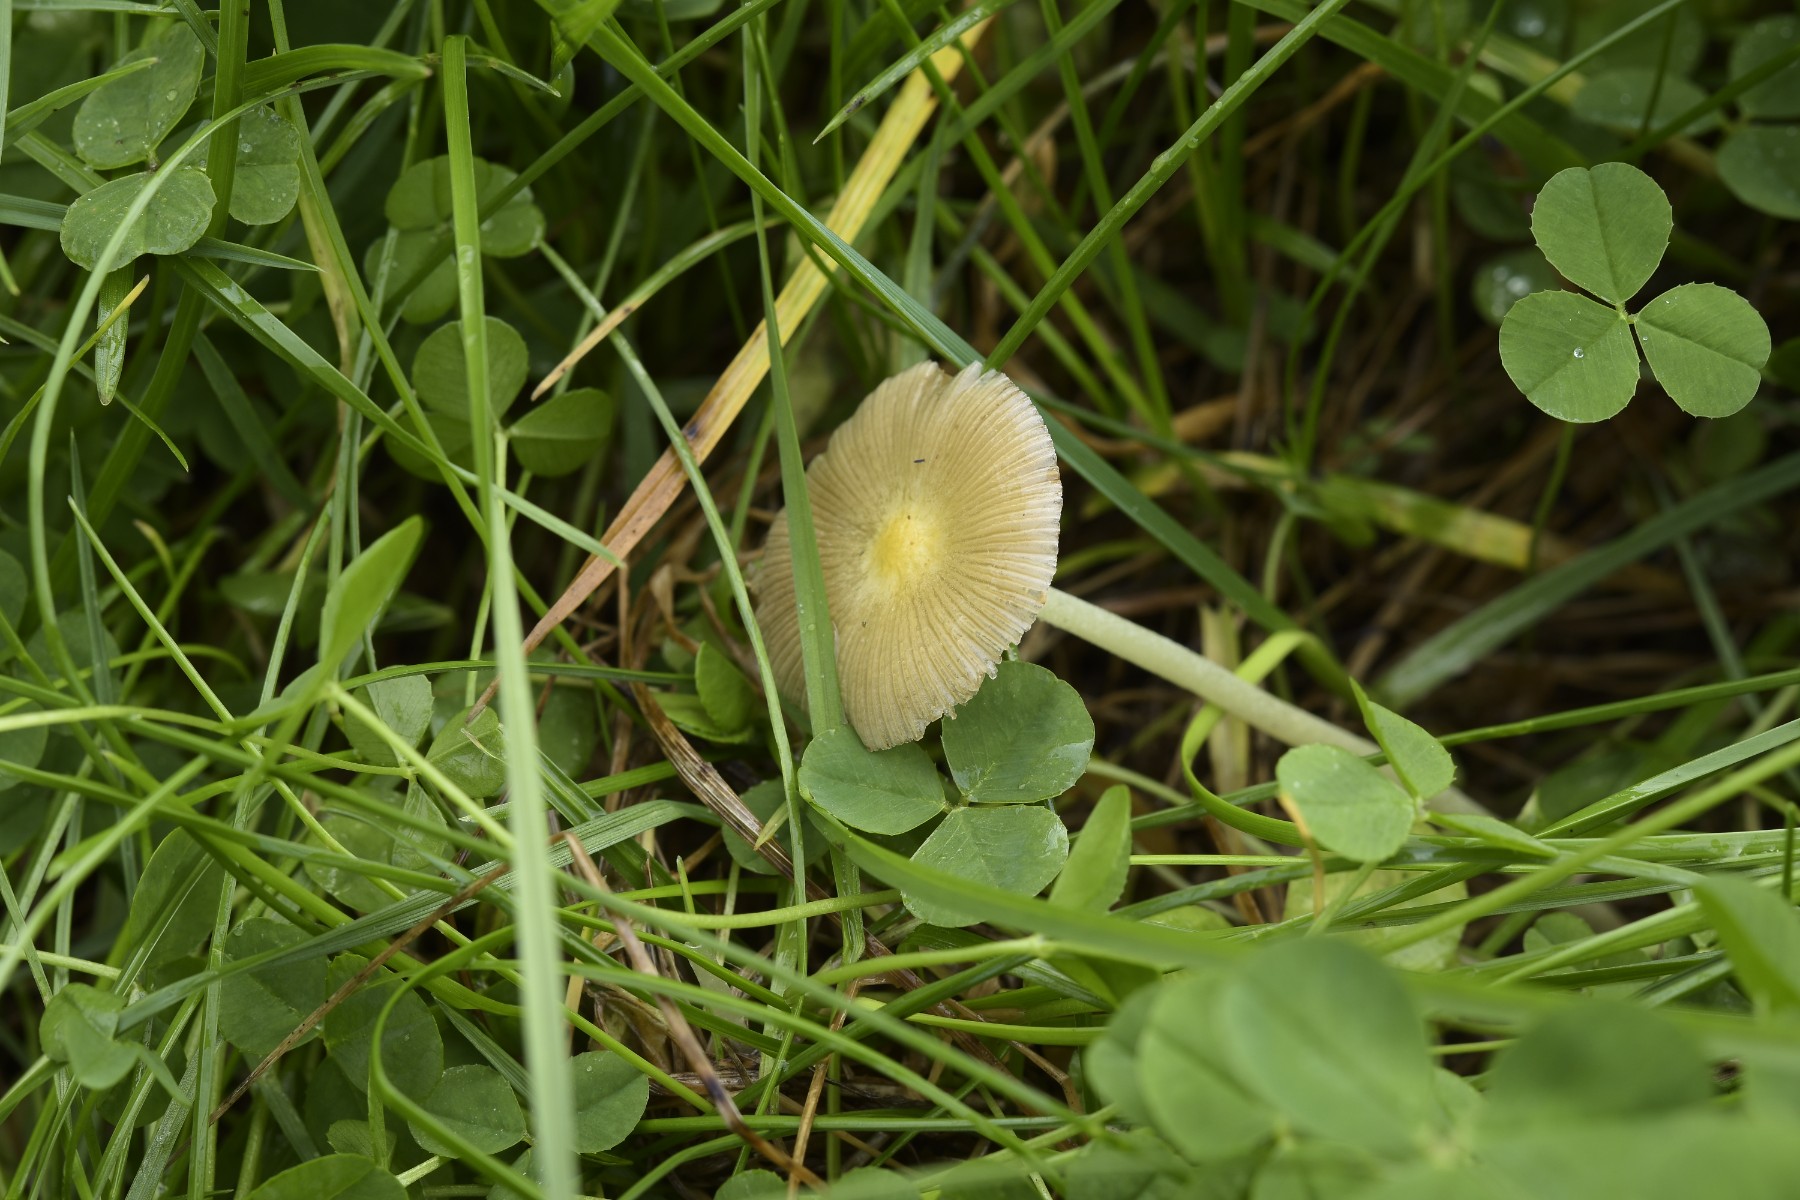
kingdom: Fungi
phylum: Basidiomycota
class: Agaricomycetes
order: Agaricales
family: Bolbitiaceae
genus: Bolbitius
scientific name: Bolbitius titubans
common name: almindelig gulhat
